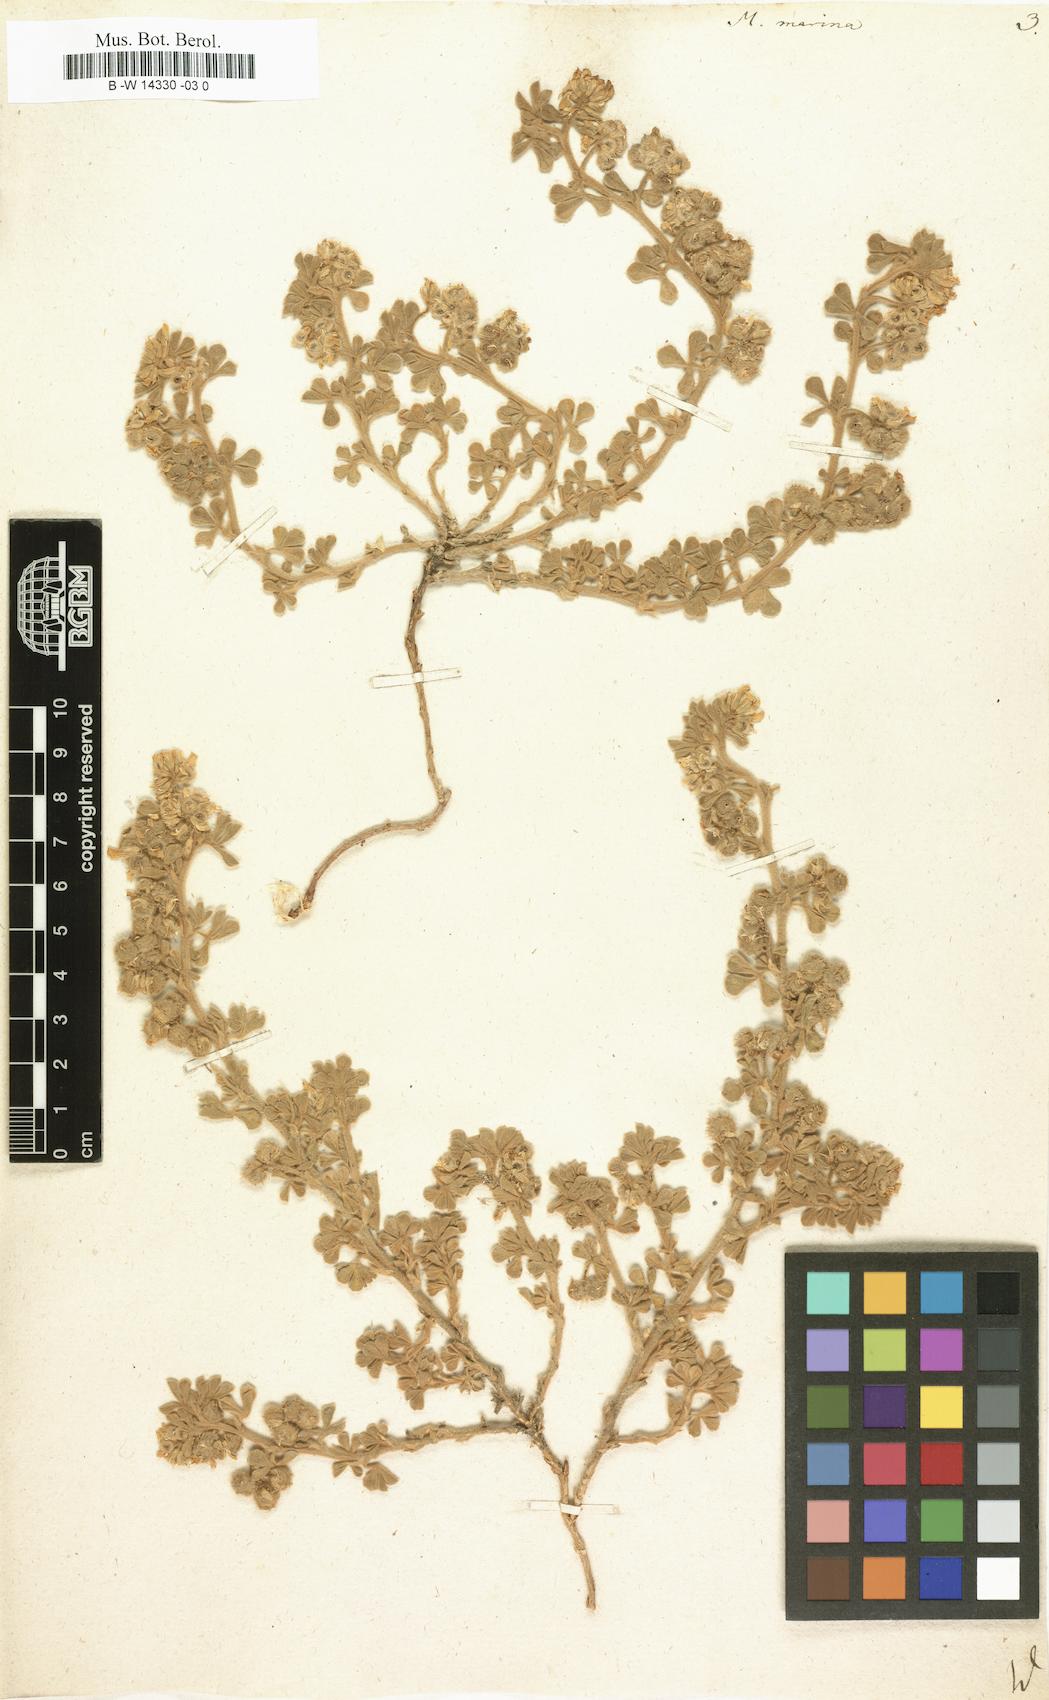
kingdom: Plantae
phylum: Tracheophyta
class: Magnoliopsida
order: Fabales
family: Fabaceae
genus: Medicago
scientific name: Medicago marina
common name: Sea medick
